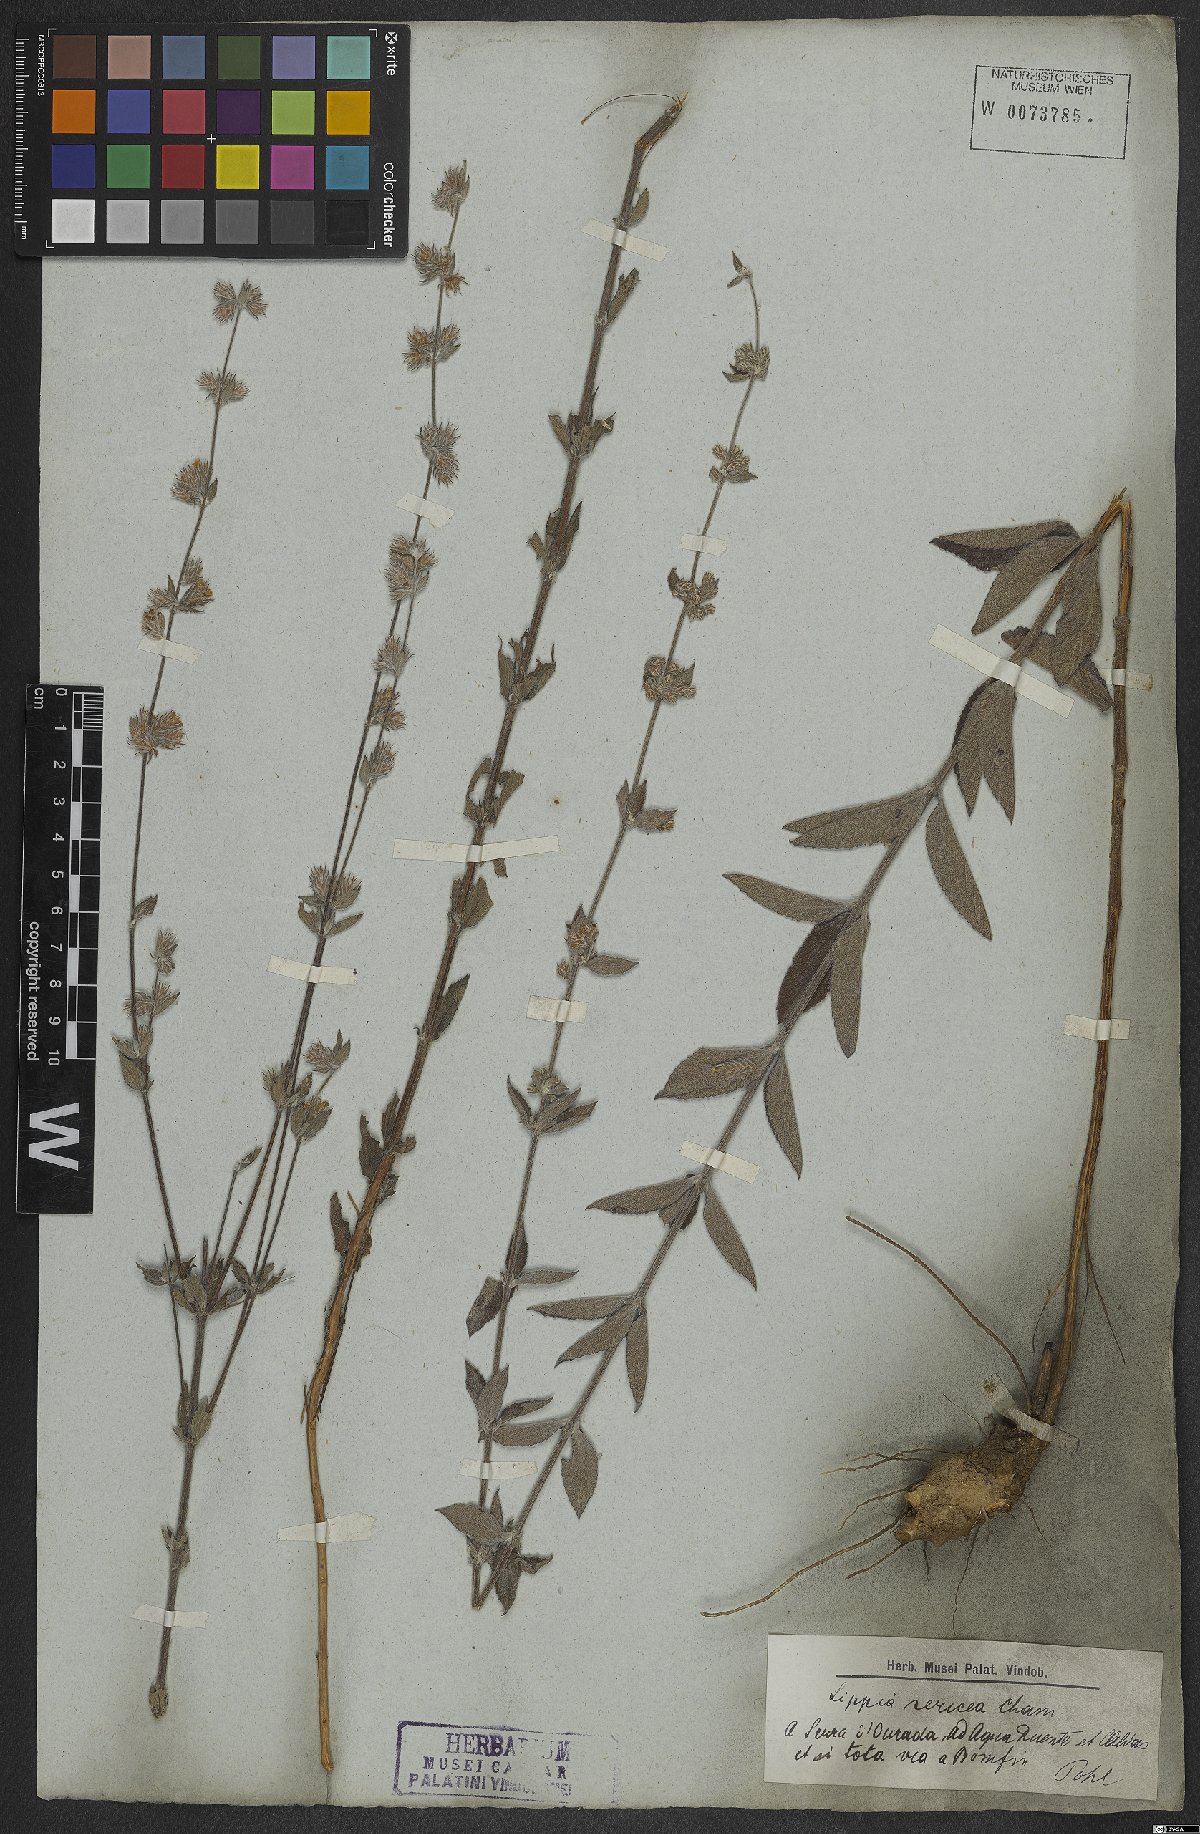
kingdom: Plantae
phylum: Tracheophyta
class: Magnoliopsida
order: Lamiales
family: Verbenaceae
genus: Lippia
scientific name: Lippia sericea
